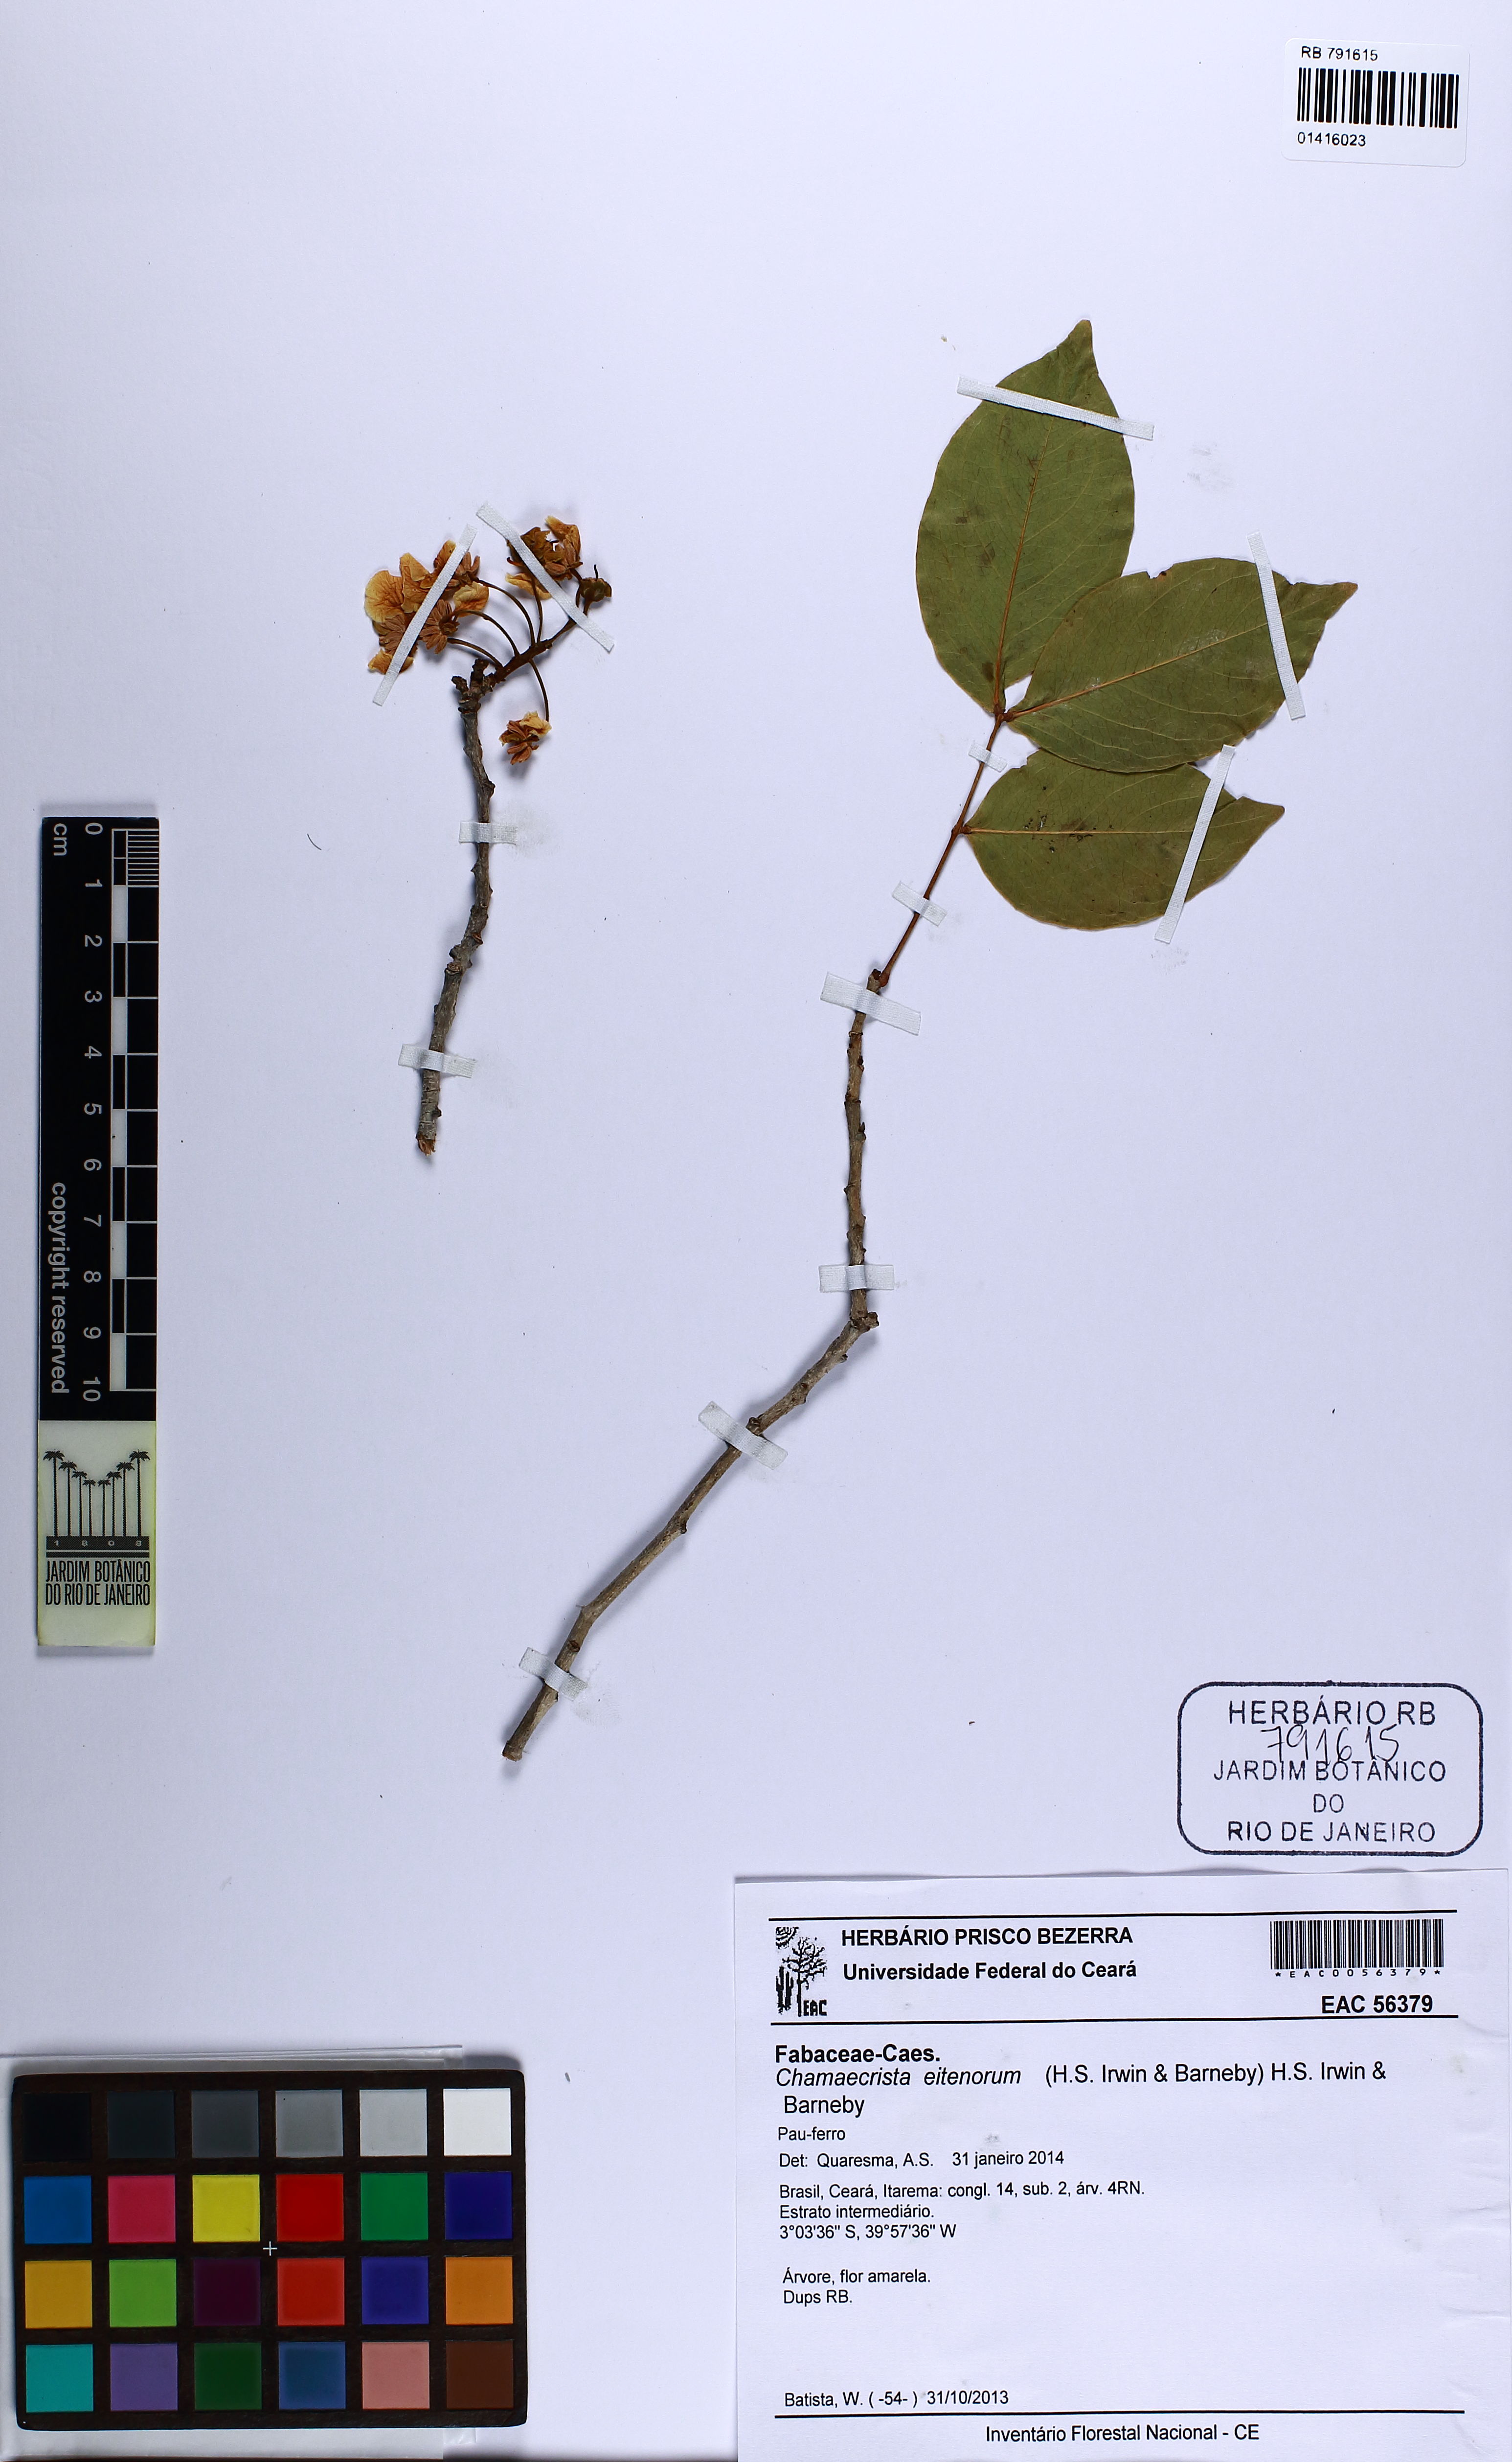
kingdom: Plantae
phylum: Tracheophyta
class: Magnoliopsida
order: Fabales
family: Fabaceae
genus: Chamaecrista
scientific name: Chamaecrista eitenorum
